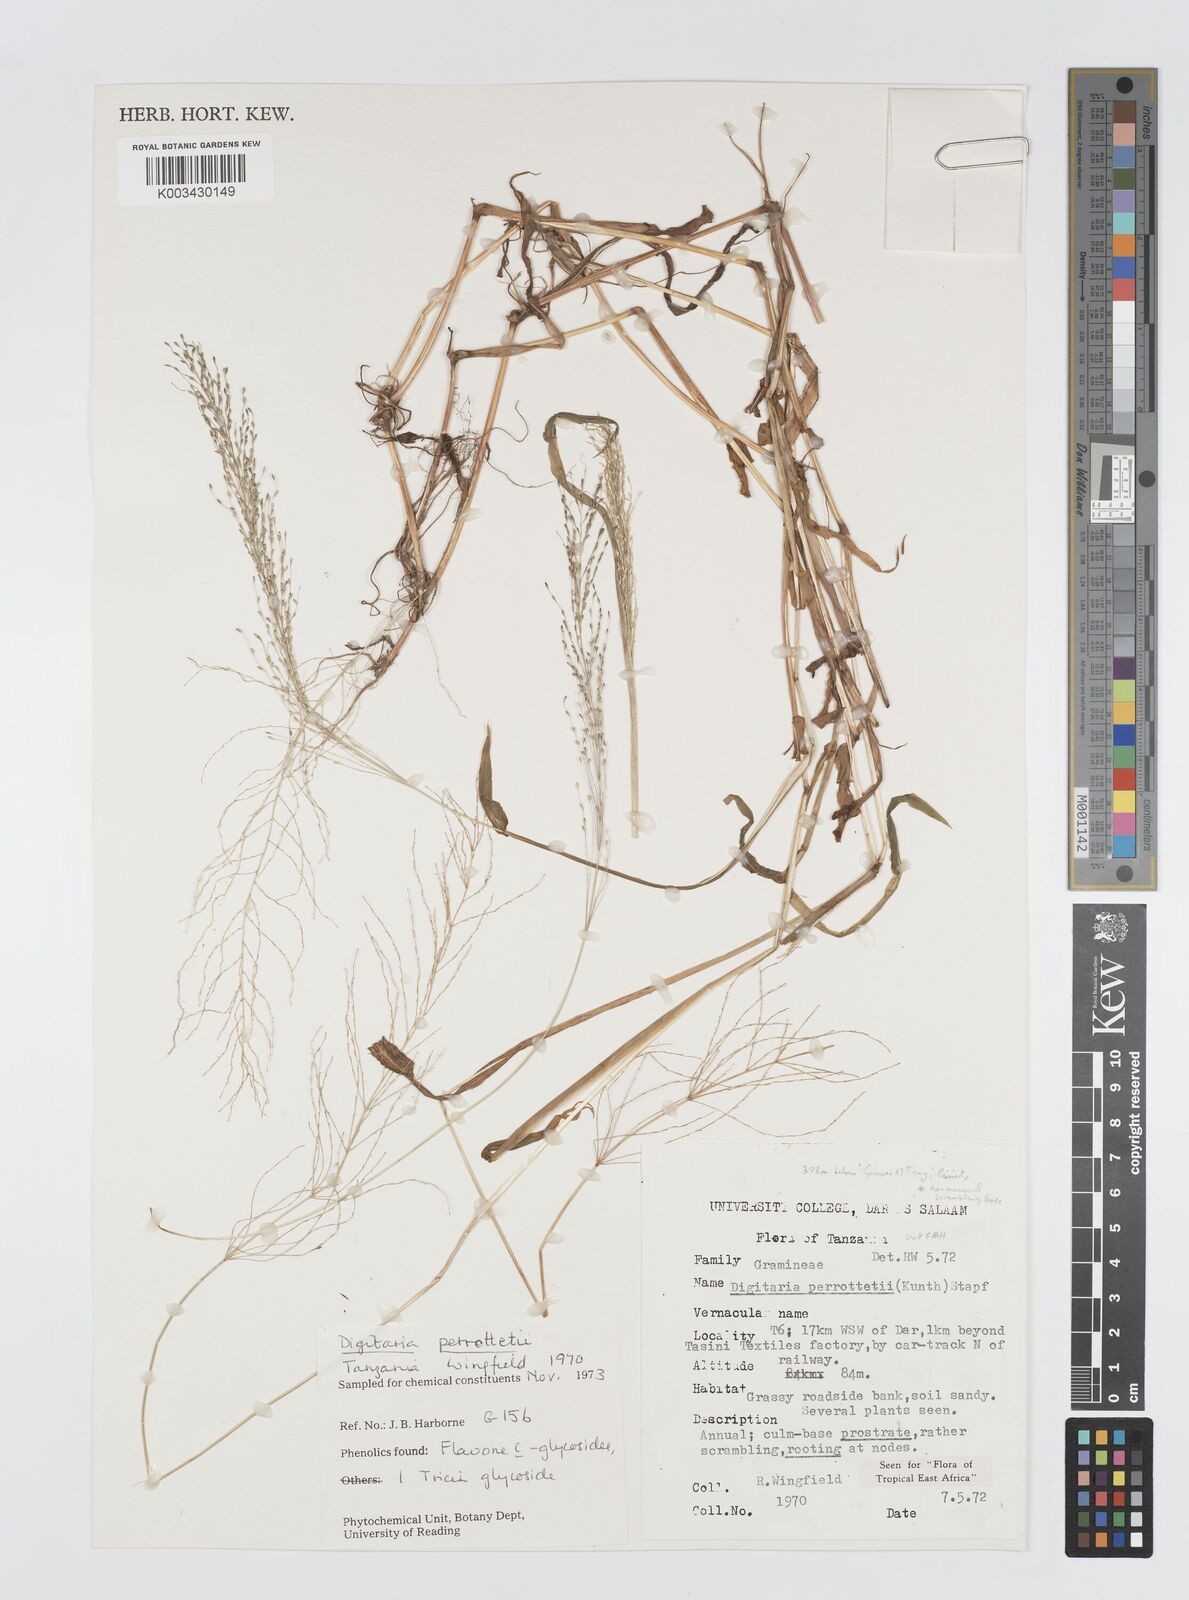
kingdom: Plantae
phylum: Tracheophyta
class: Liliopsida
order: Poales
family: Poaceae
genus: Digitaria
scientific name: Digitaria perrottetii
